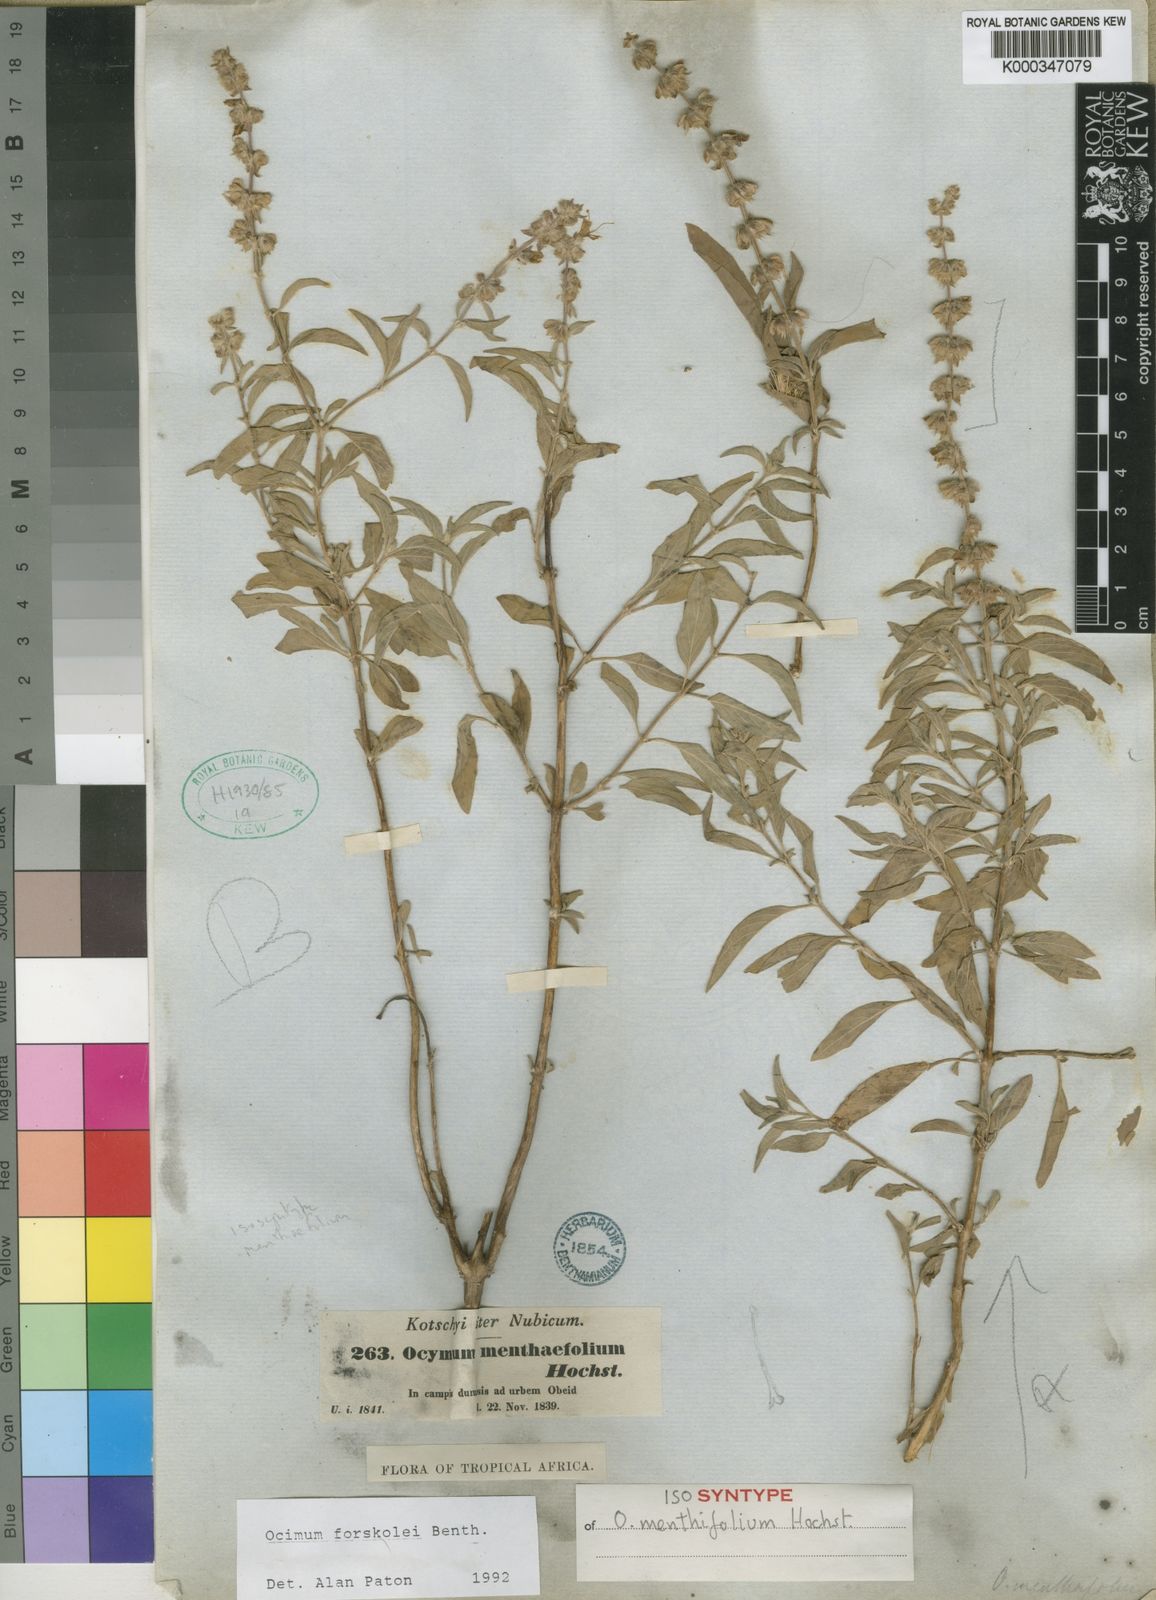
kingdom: Plantae
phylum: Tracheophyta
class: Magnoliopsida
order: Lamiales
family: Lamiaceae
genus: Ocimum
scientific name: Ocimum
